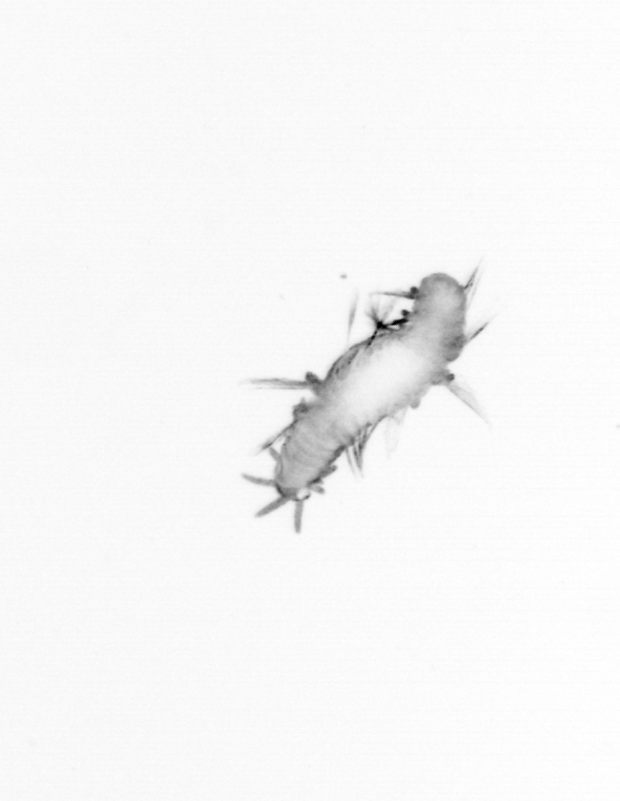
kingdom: Animalia
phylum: Annelida
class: Polychaeta
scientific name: Polychaeta
